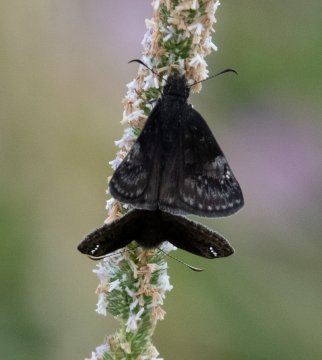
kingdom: Animalia
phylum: Arthropoda
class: Insecta
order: Lepidoptera
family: Hesperiidae
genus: Gesta
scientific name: Gesta
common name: Wild Indigo Duskywing
